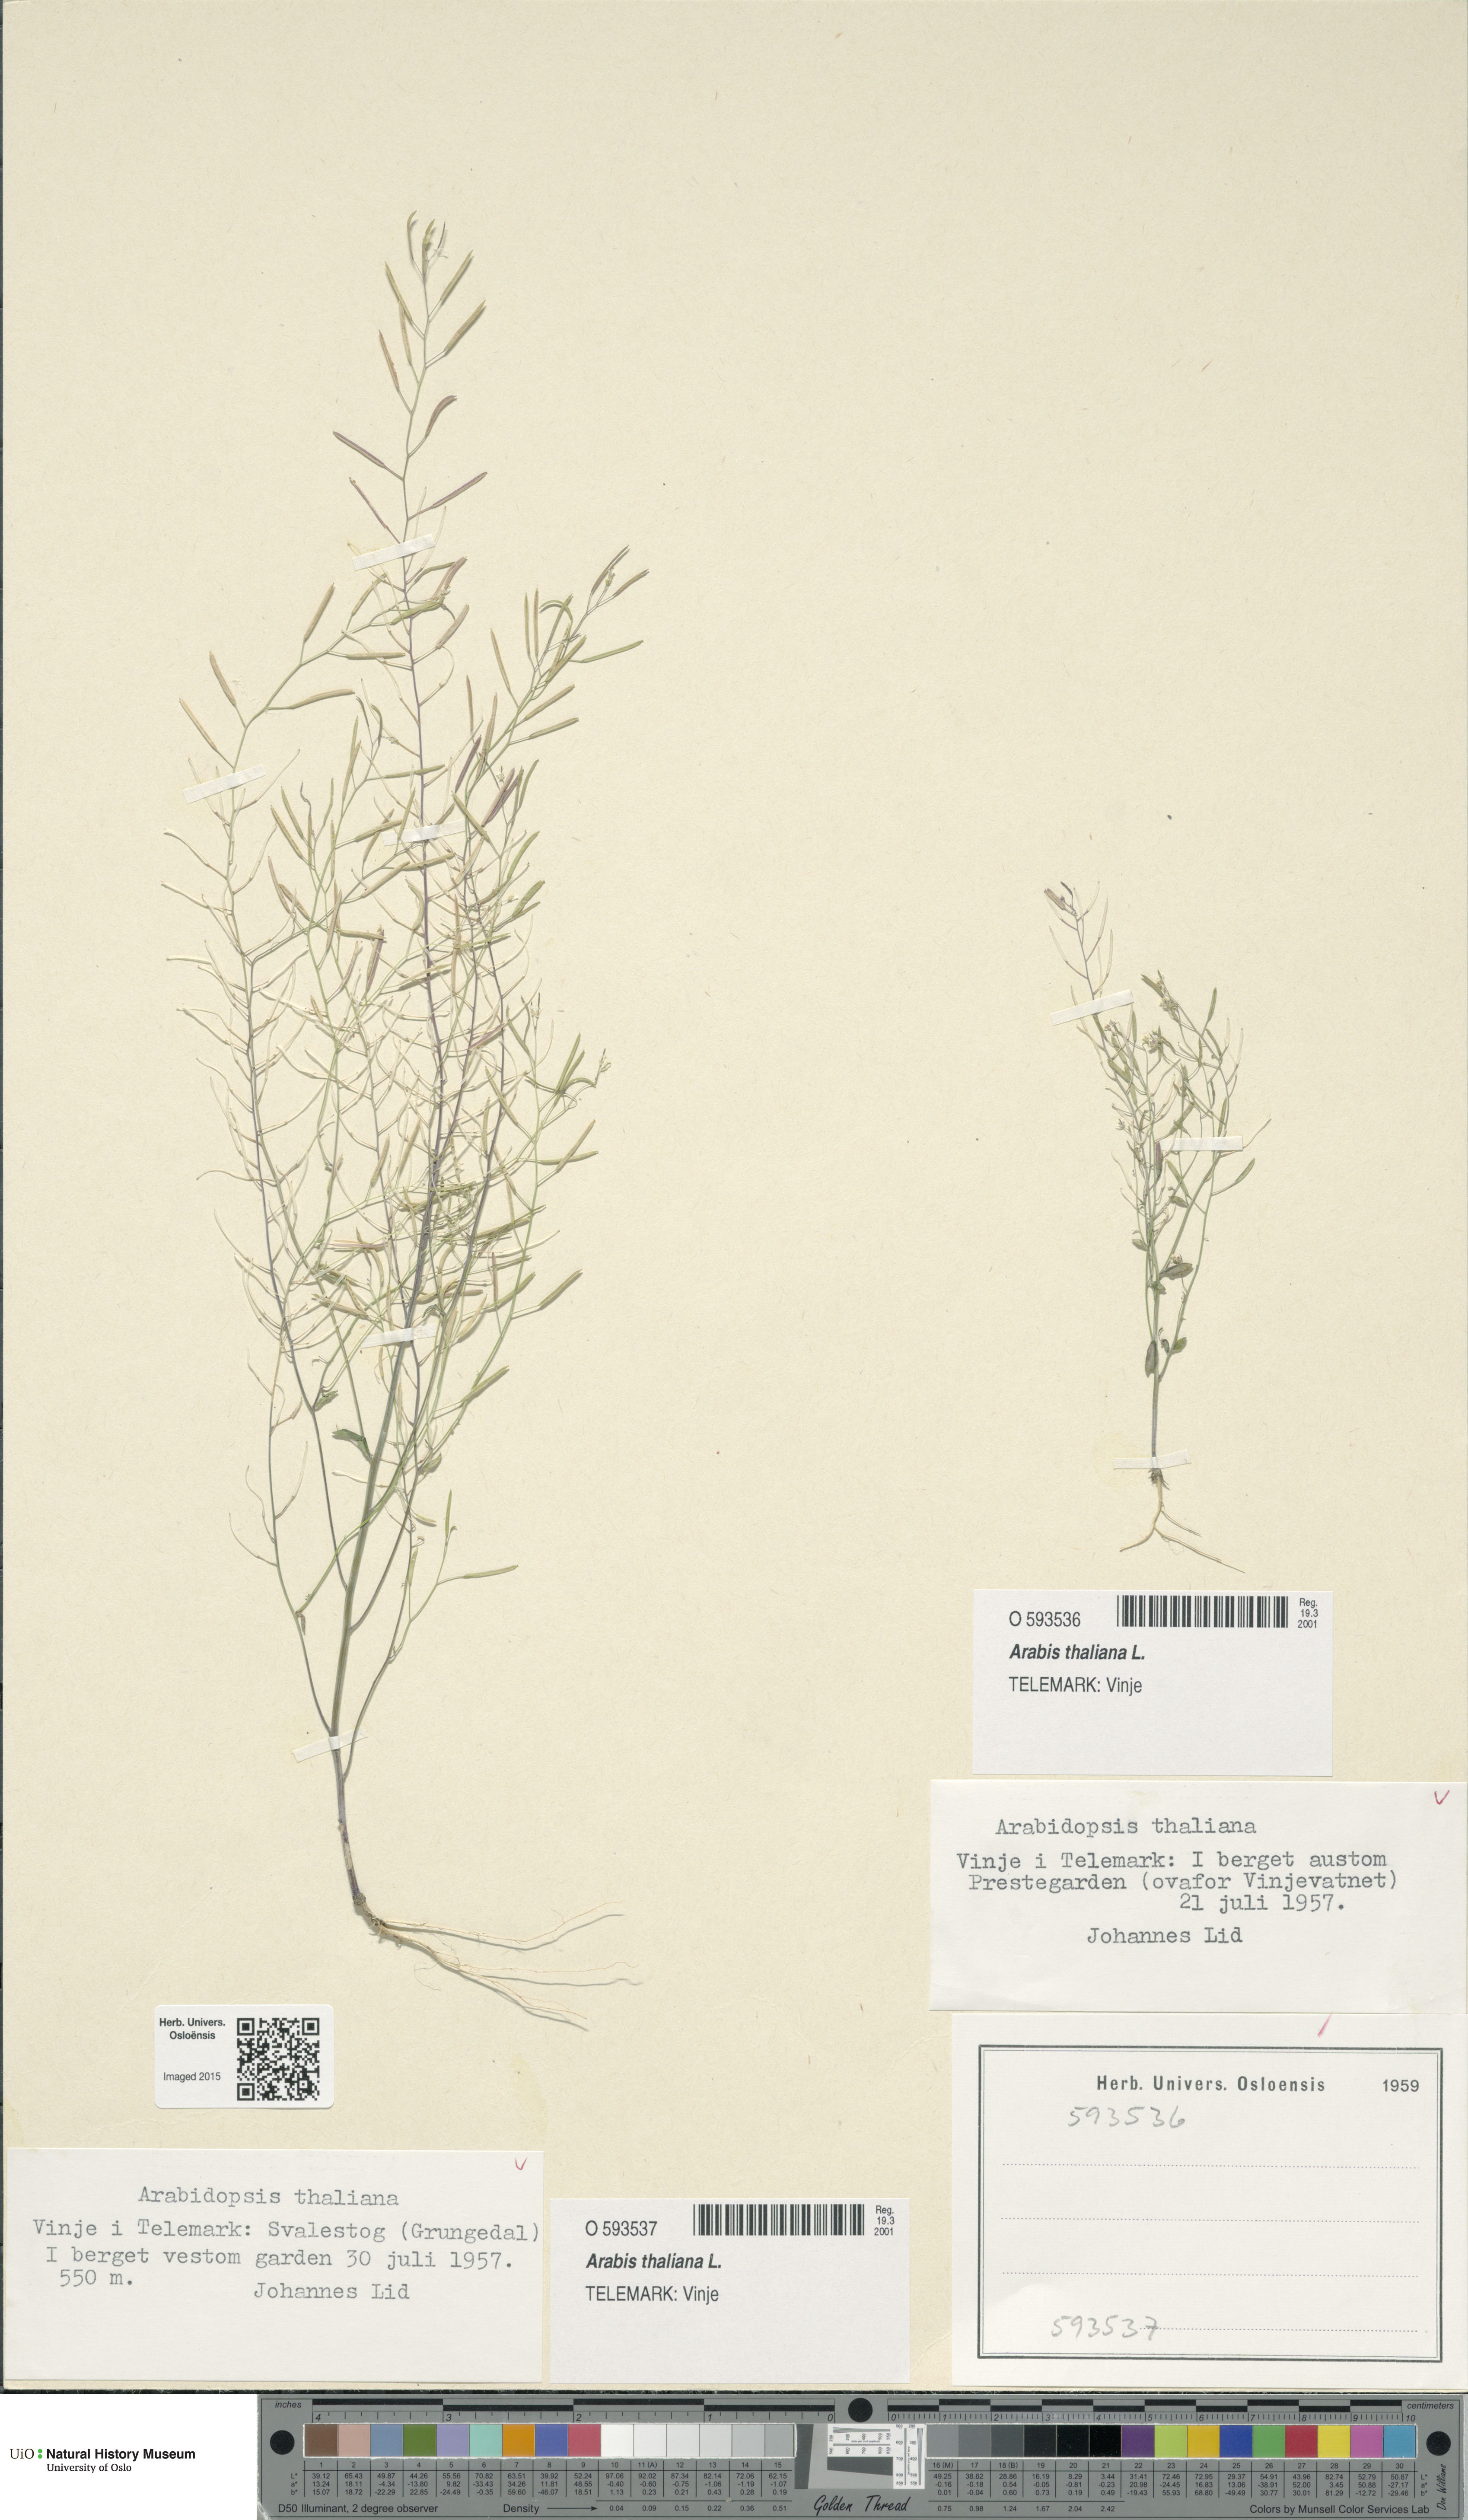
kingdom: Plantae
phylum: Tracheophyta
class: Magnoliopsida
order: Brassicales
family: Brassicaceae
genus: Arabidopsis
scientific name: Arabidopsis thaliana
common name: Thale cress
